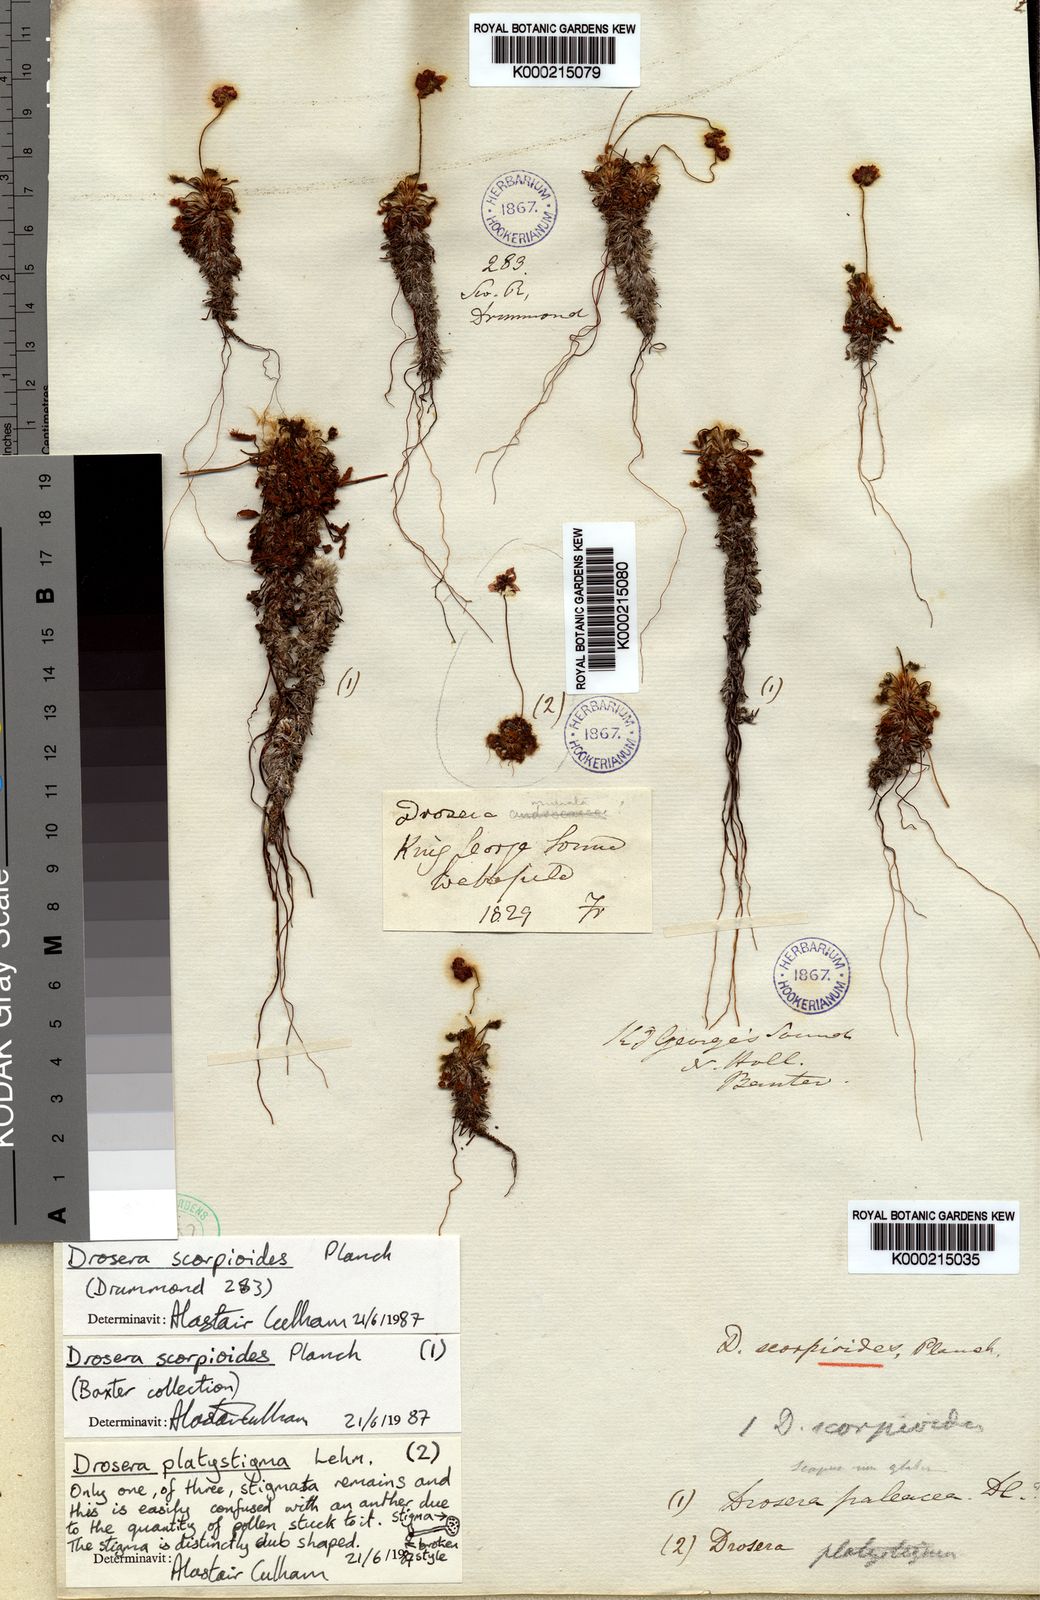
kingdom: Plantae
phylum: Tracheophyta
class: Magnoliopsida
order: Caryophyllales
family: Droseraceae
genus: Drosera
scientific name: Drosera scorpioides
